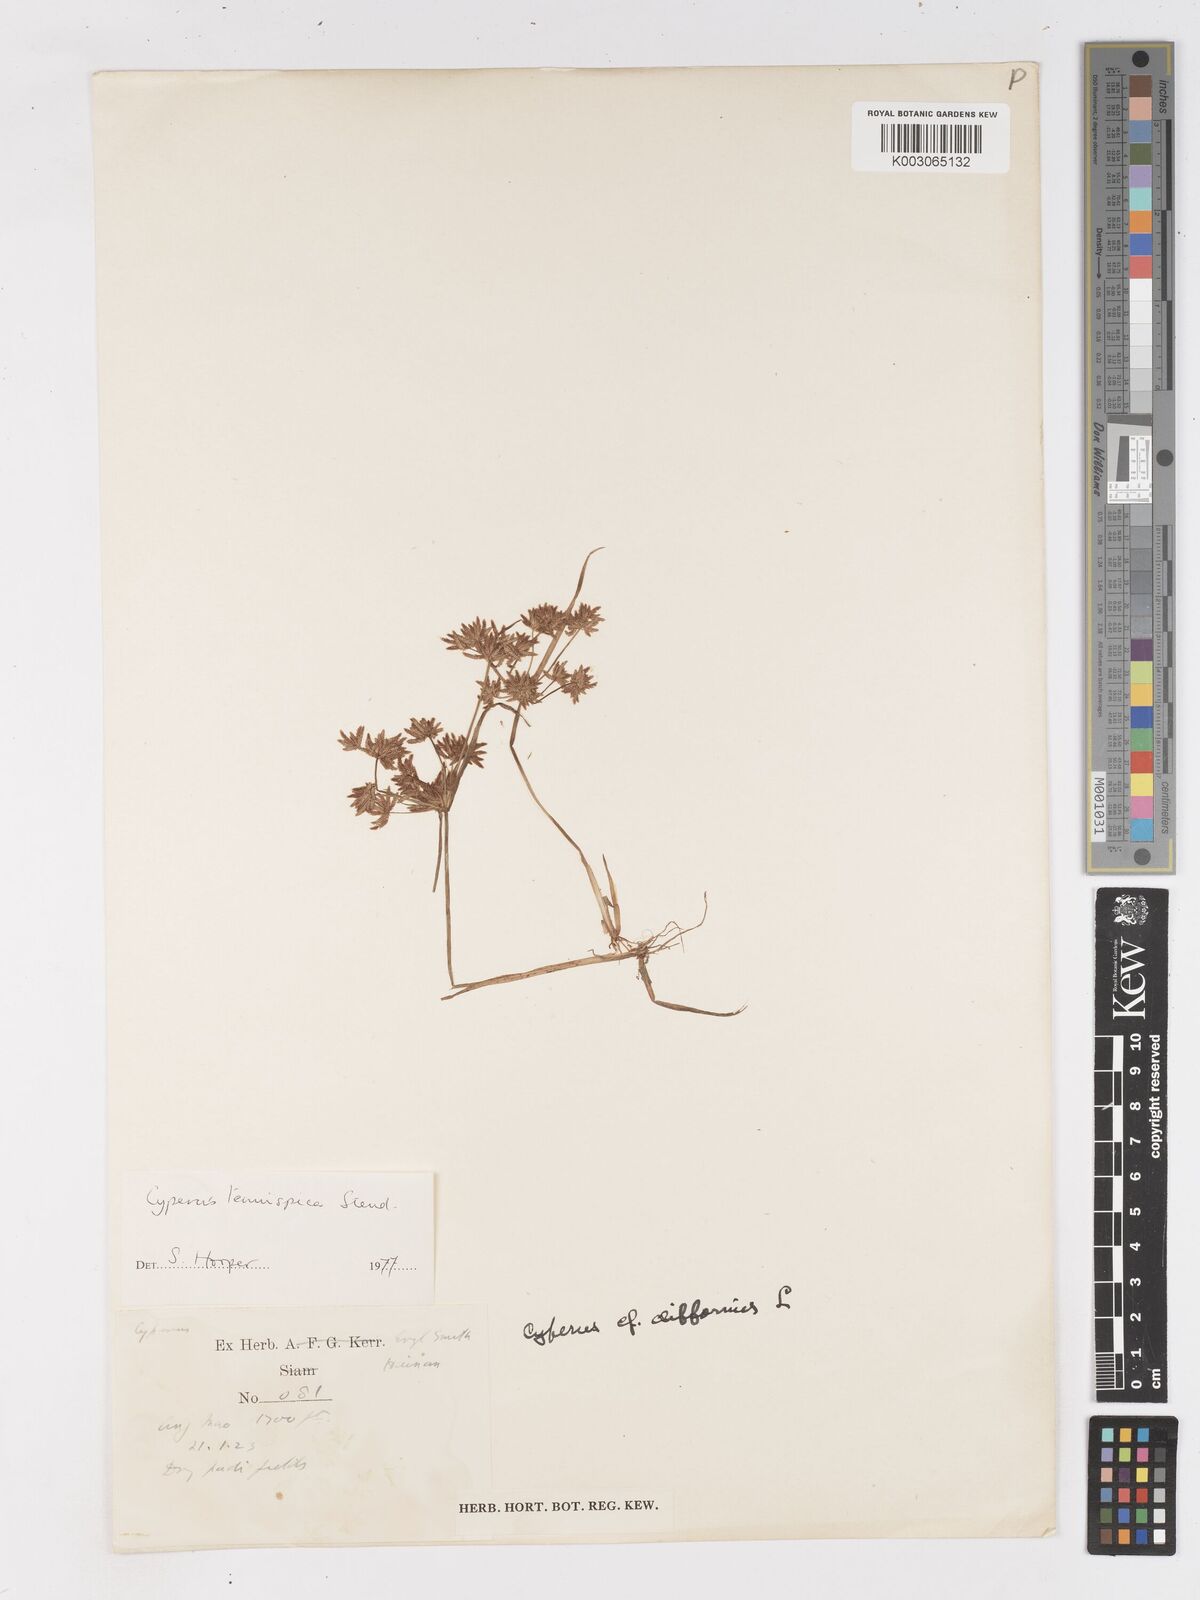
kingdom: Plantae
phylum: Tracheophyta
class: Liliopsida
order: Poales
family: Cyperaceae
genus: Cyperus
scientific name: Cyperus tenuispica
